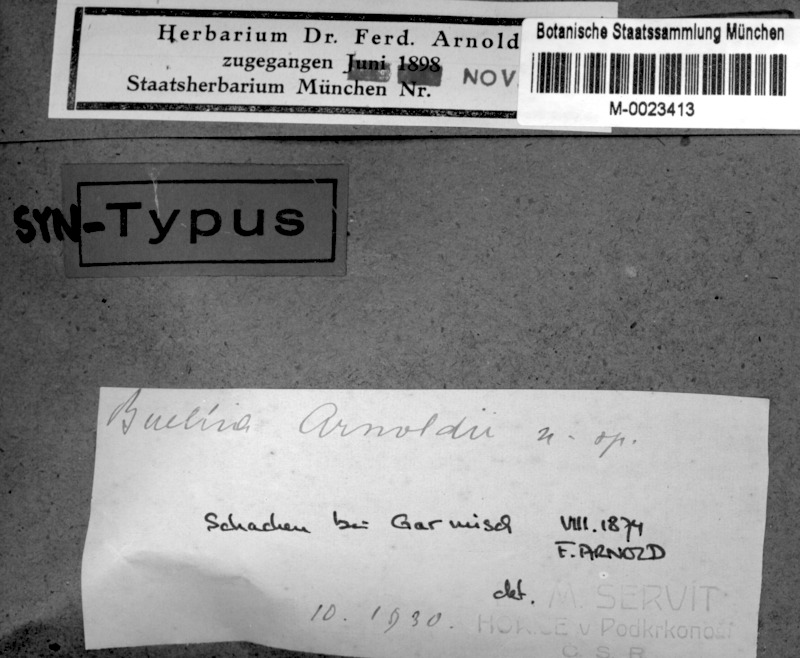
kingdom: Fungi
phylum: Ascomycota
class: Lecanoromycetes
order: Caliciales
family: Caliciaceae
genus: Buellia
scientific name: Buellia arnoldii
